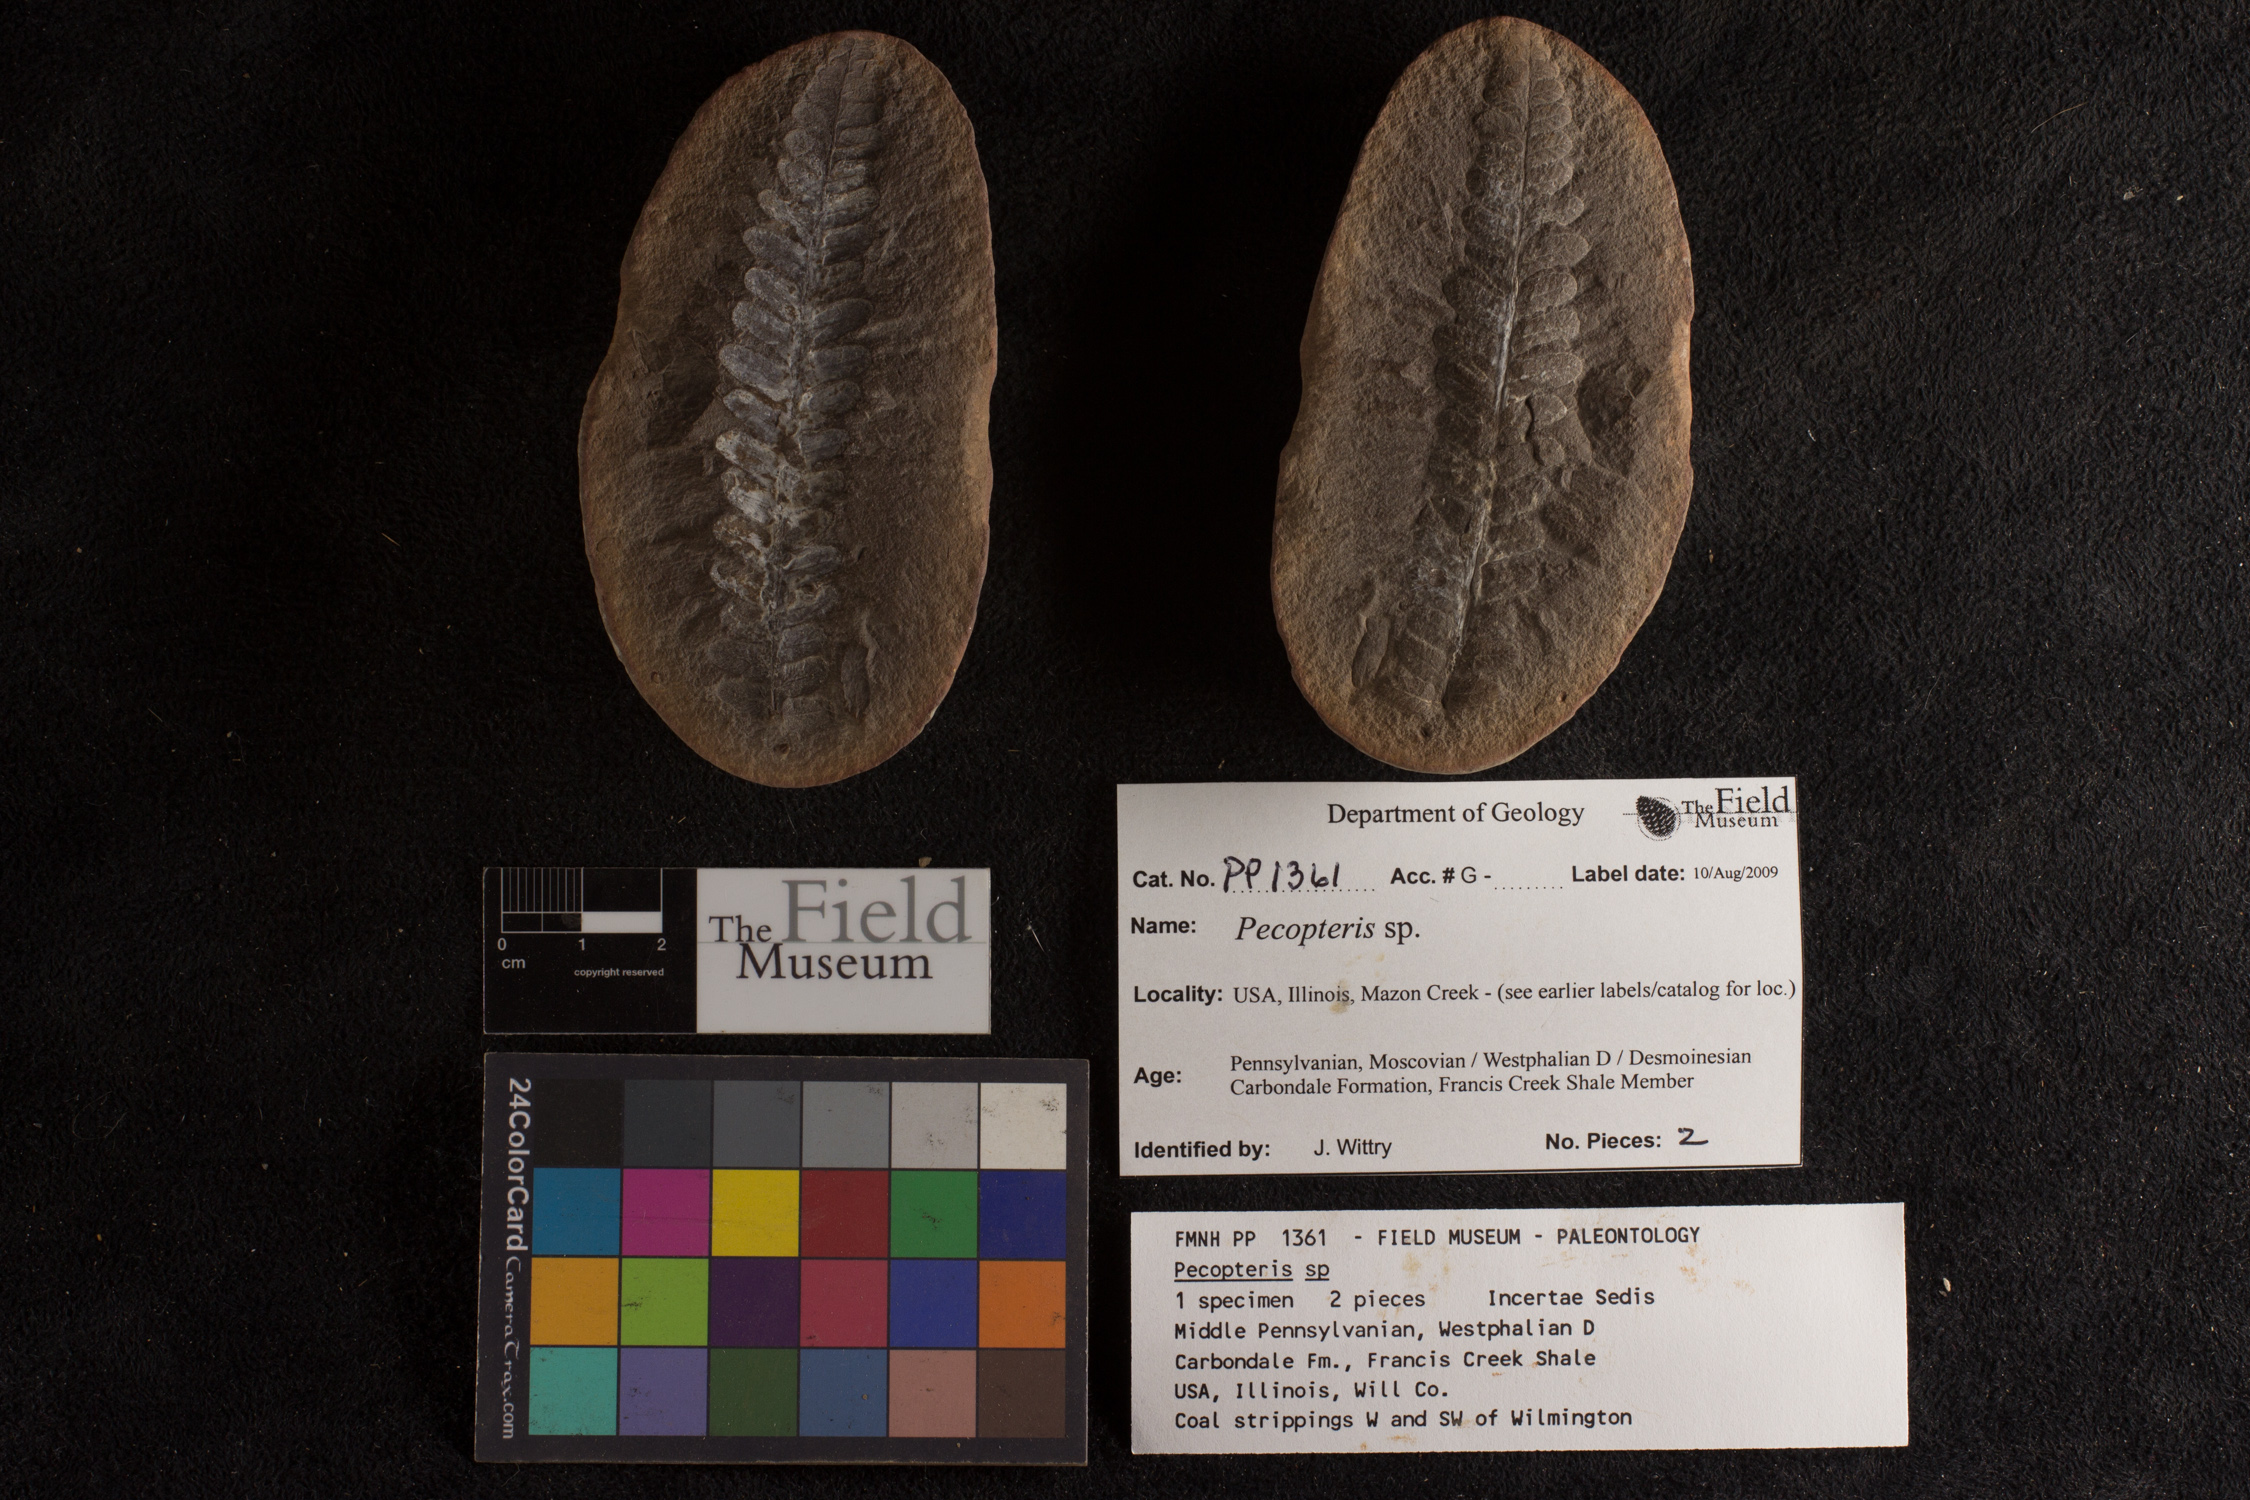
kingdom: Plantae
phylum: Tracheophyta
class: Polypodiopsida
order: Marattiales
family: Asterothecaceae
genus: Pecopteris
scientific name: Pecopteris
